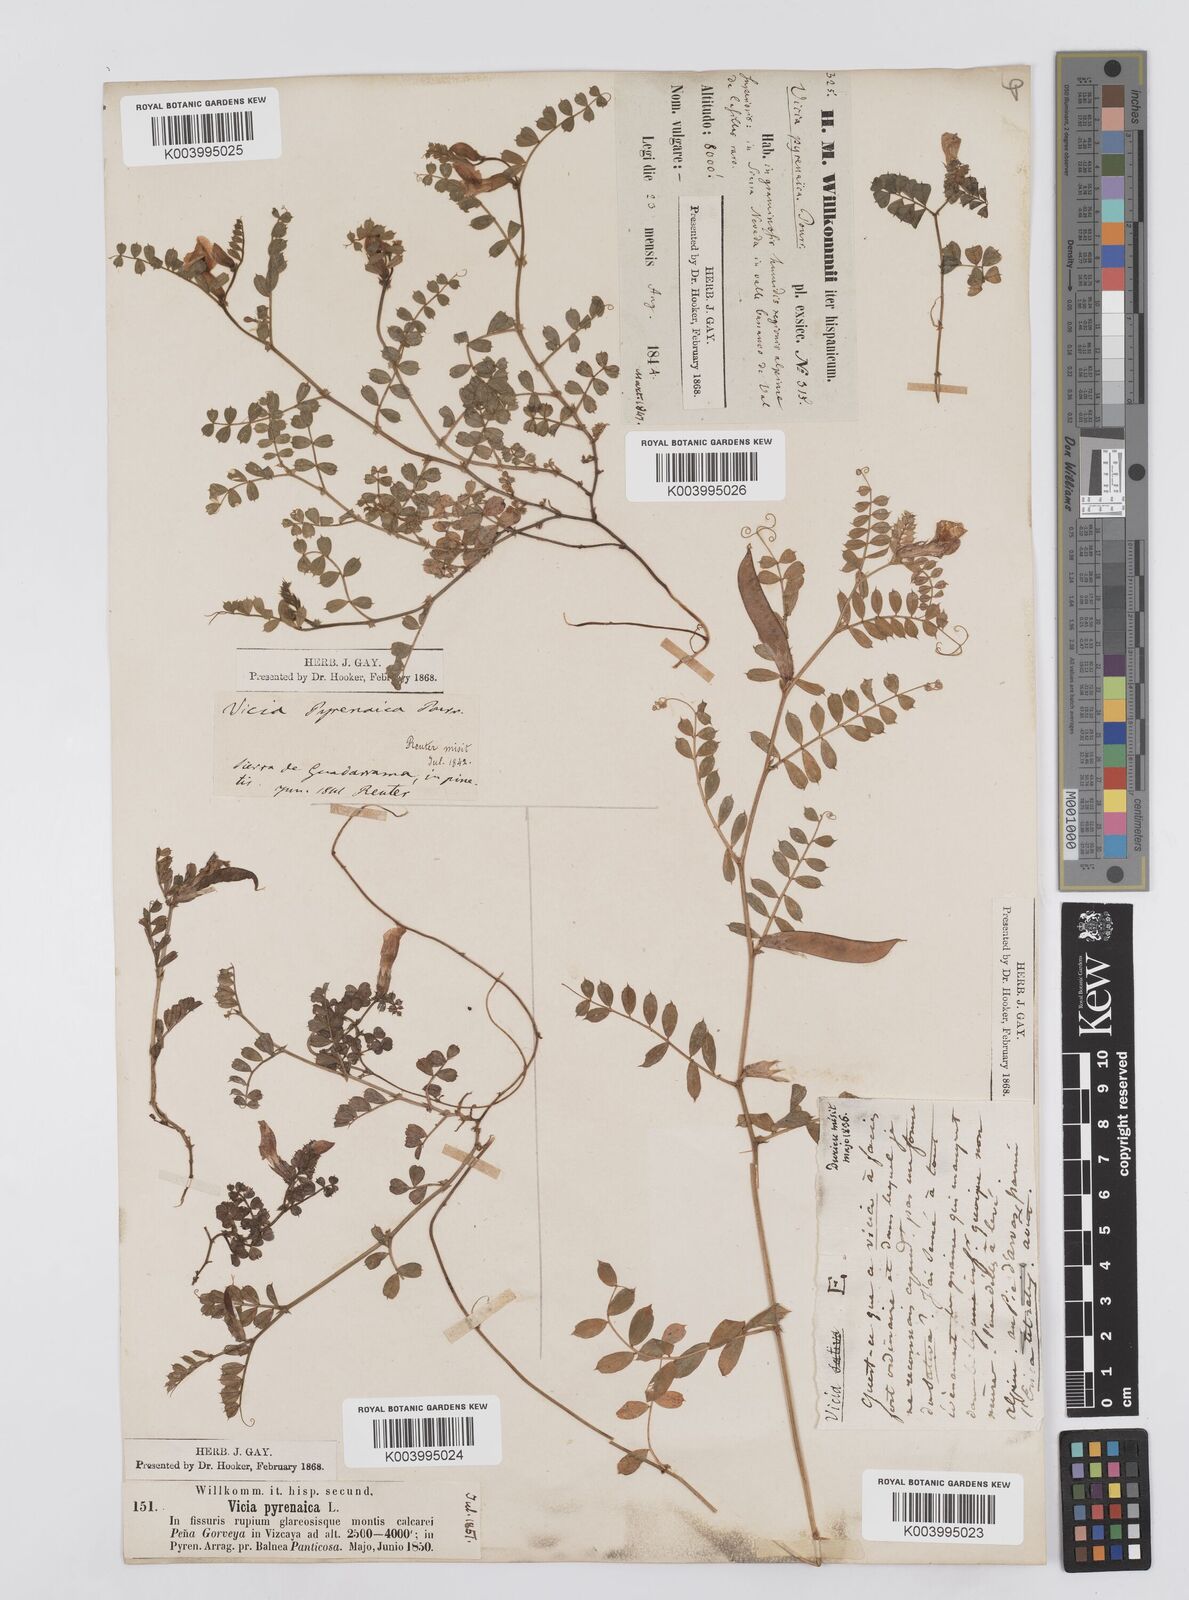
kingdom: Plantae
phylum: Tracheophyta
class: Magnoliopsida
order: Fabales
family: Fabaceae
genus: Vicia
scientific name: Vicia pyrenaica
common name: Pyrenean vetch
